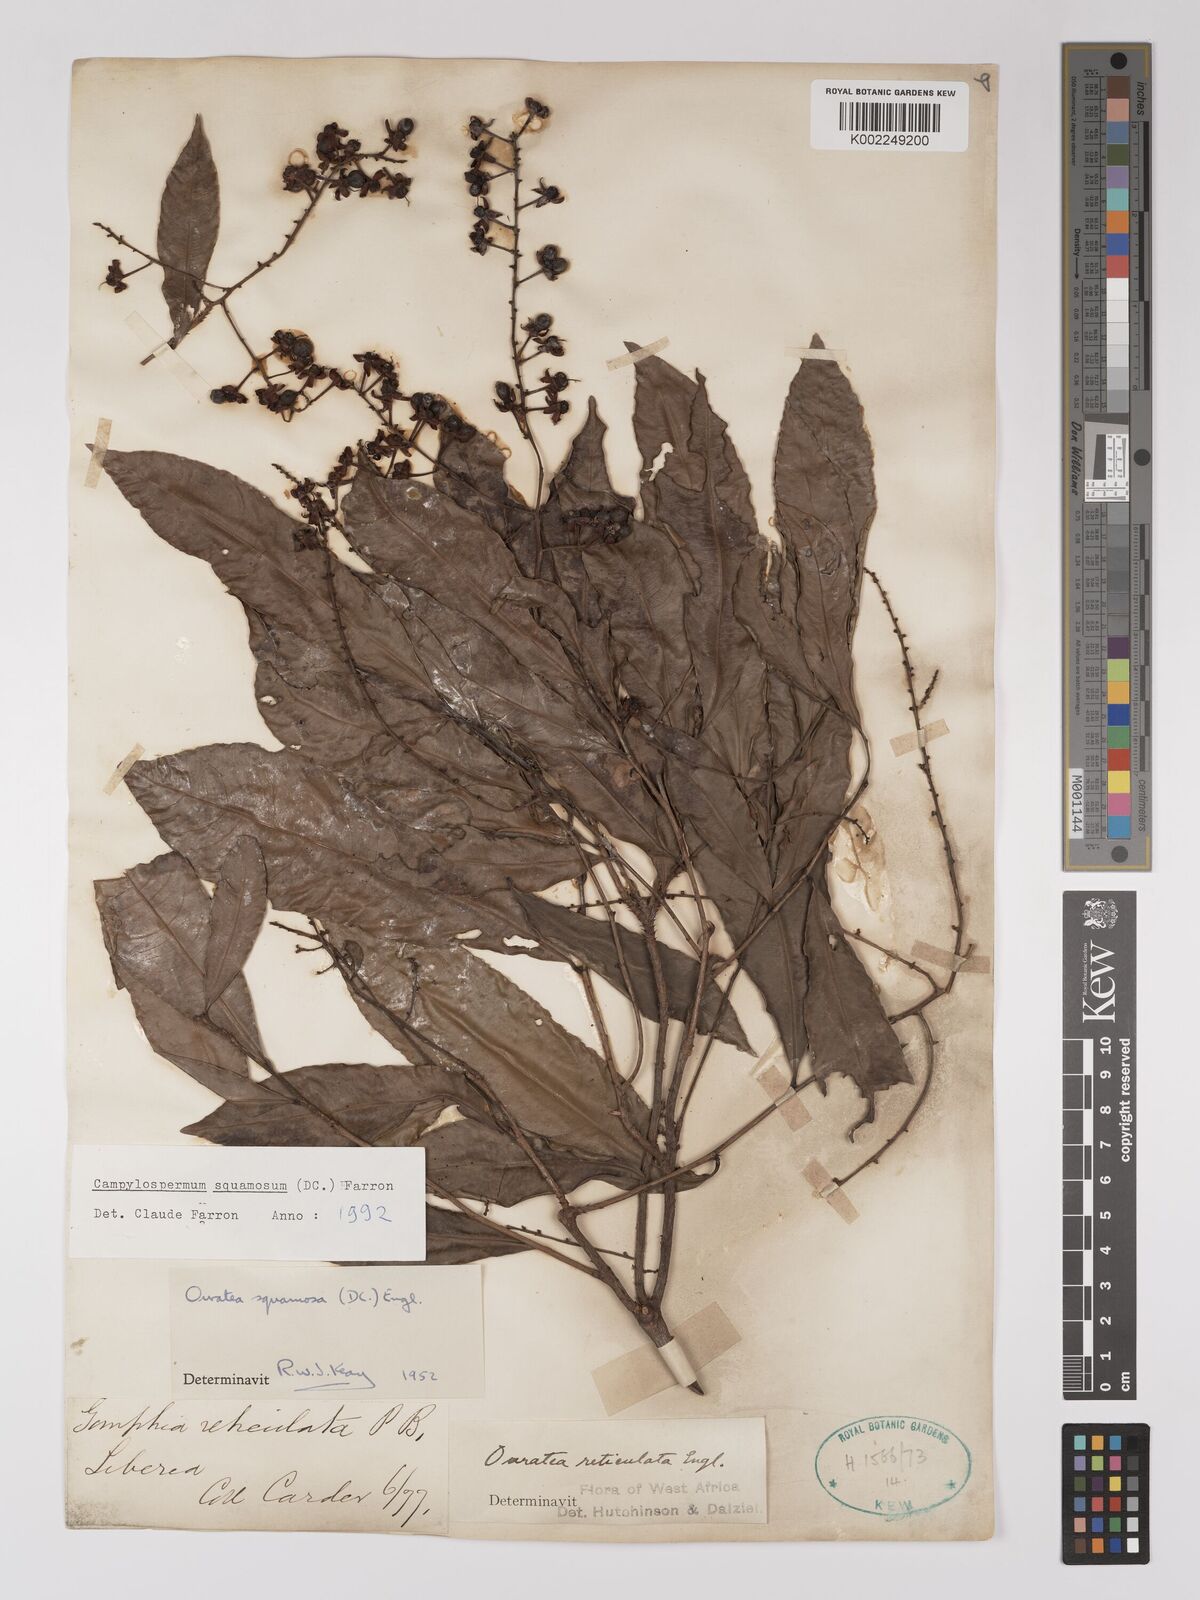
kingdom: Plantae
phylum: Tracheophyta
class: Magnoliopsida
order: Malpighiales
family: Ochnaceae
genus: Campylospermum
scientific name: Campylospermum squamosum
